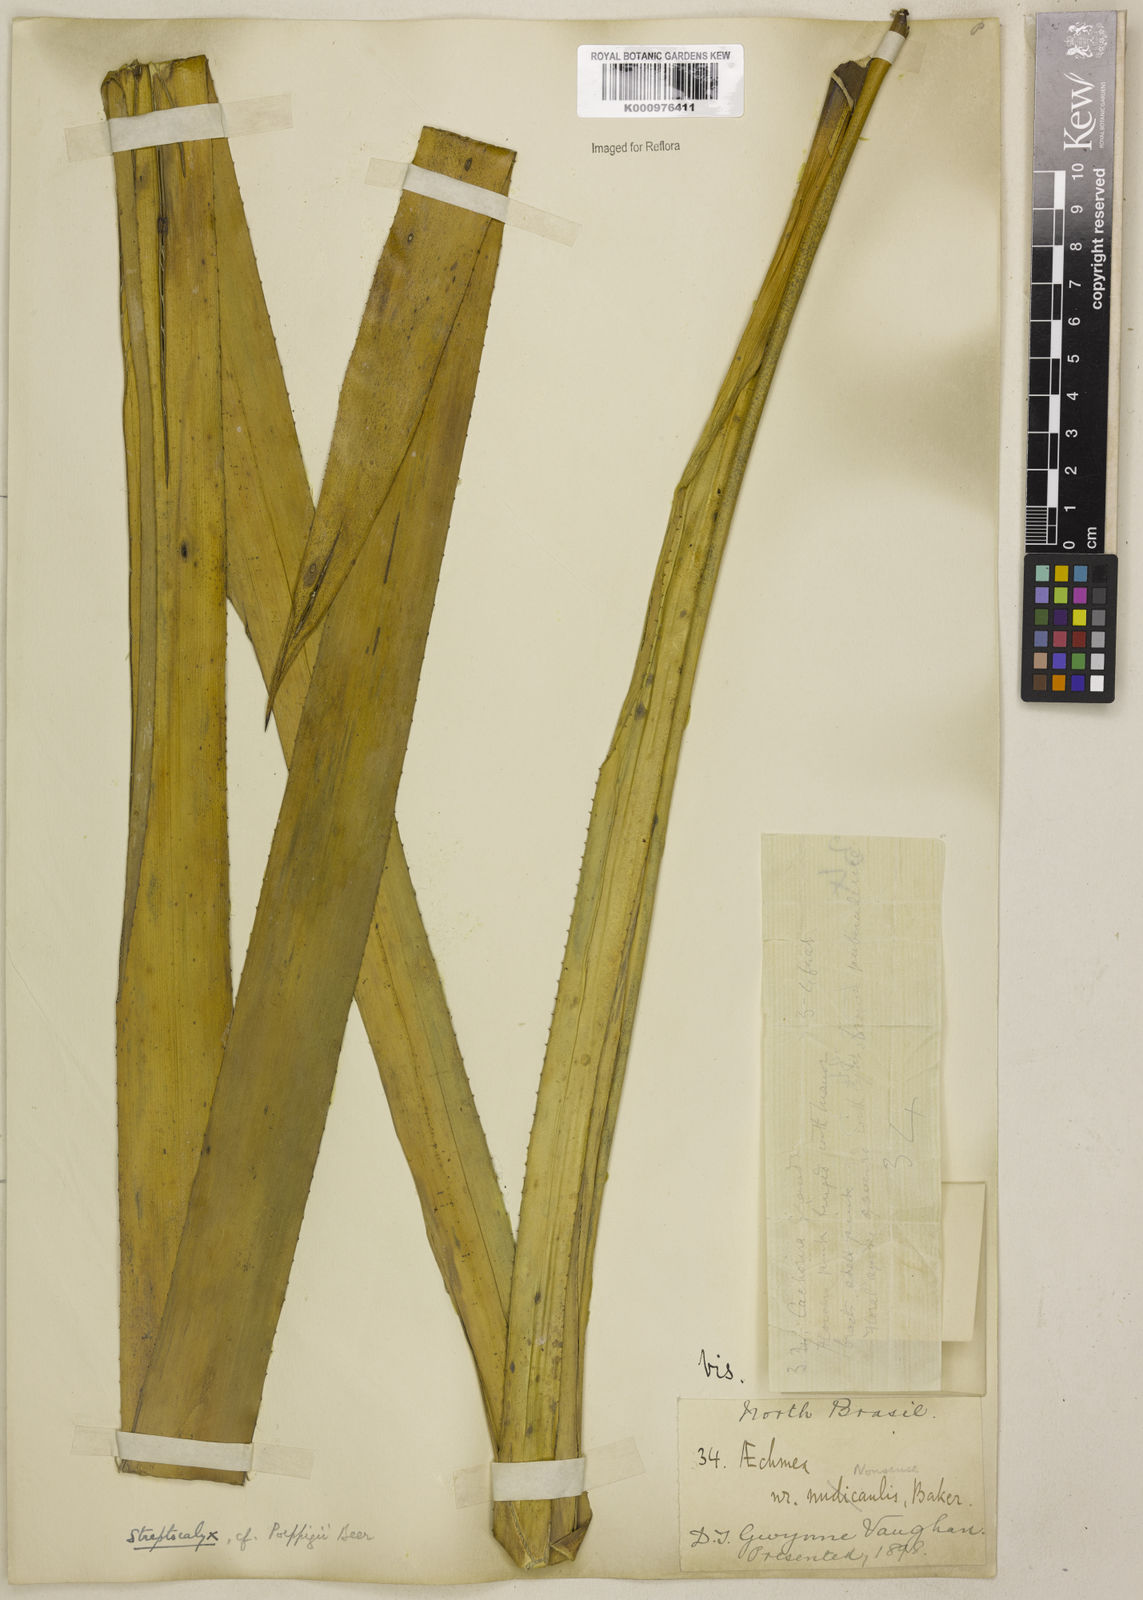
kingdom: Plantae
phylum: Tracheophyta
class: Liliopsida
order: Poales
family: Bromeliaceae
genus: Aechmea
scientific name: Aechmea vallerandii
